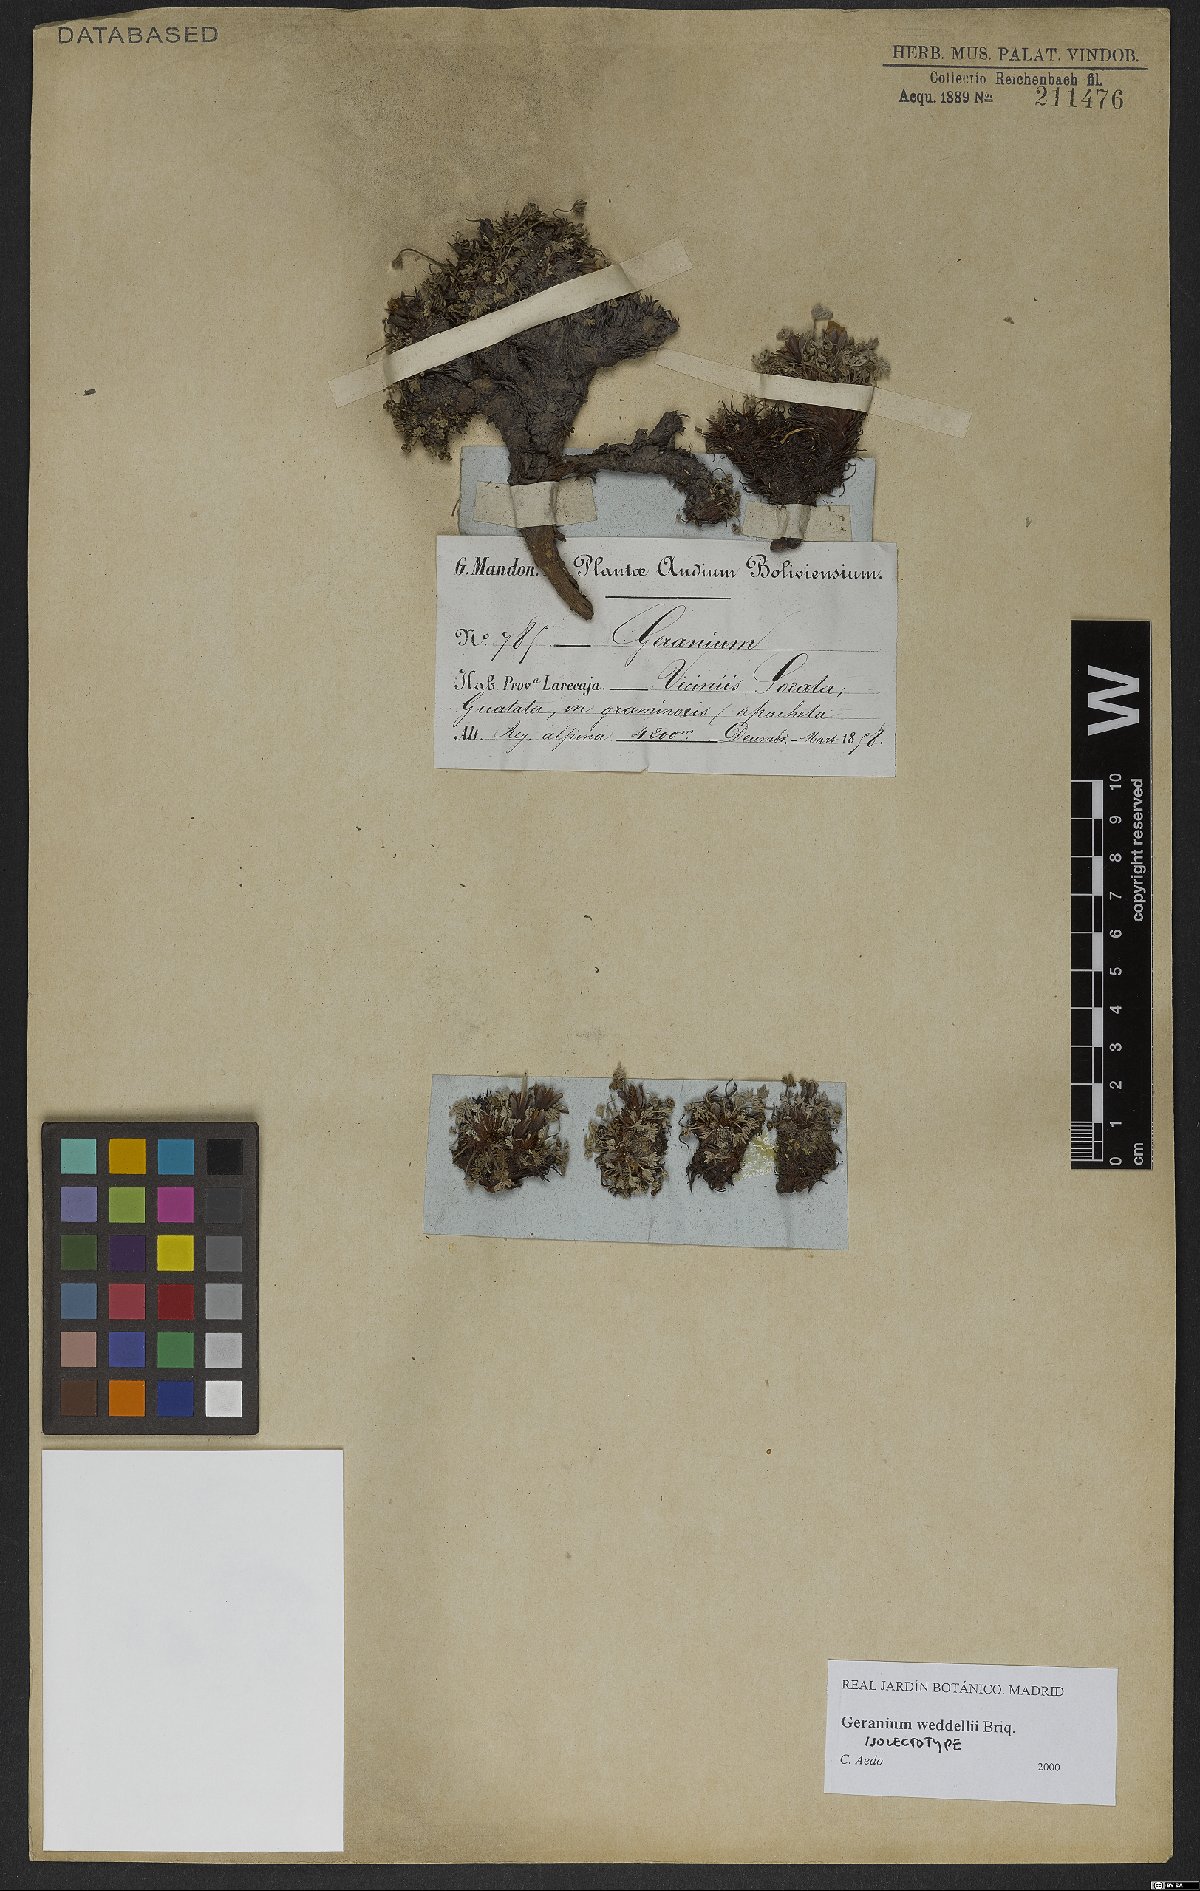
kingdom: Plantae
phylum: Tracheophyta
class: Magnoliopsida
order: Geraniales
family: Geraniaceae
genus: Geranium
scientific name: Geranium weddellii
